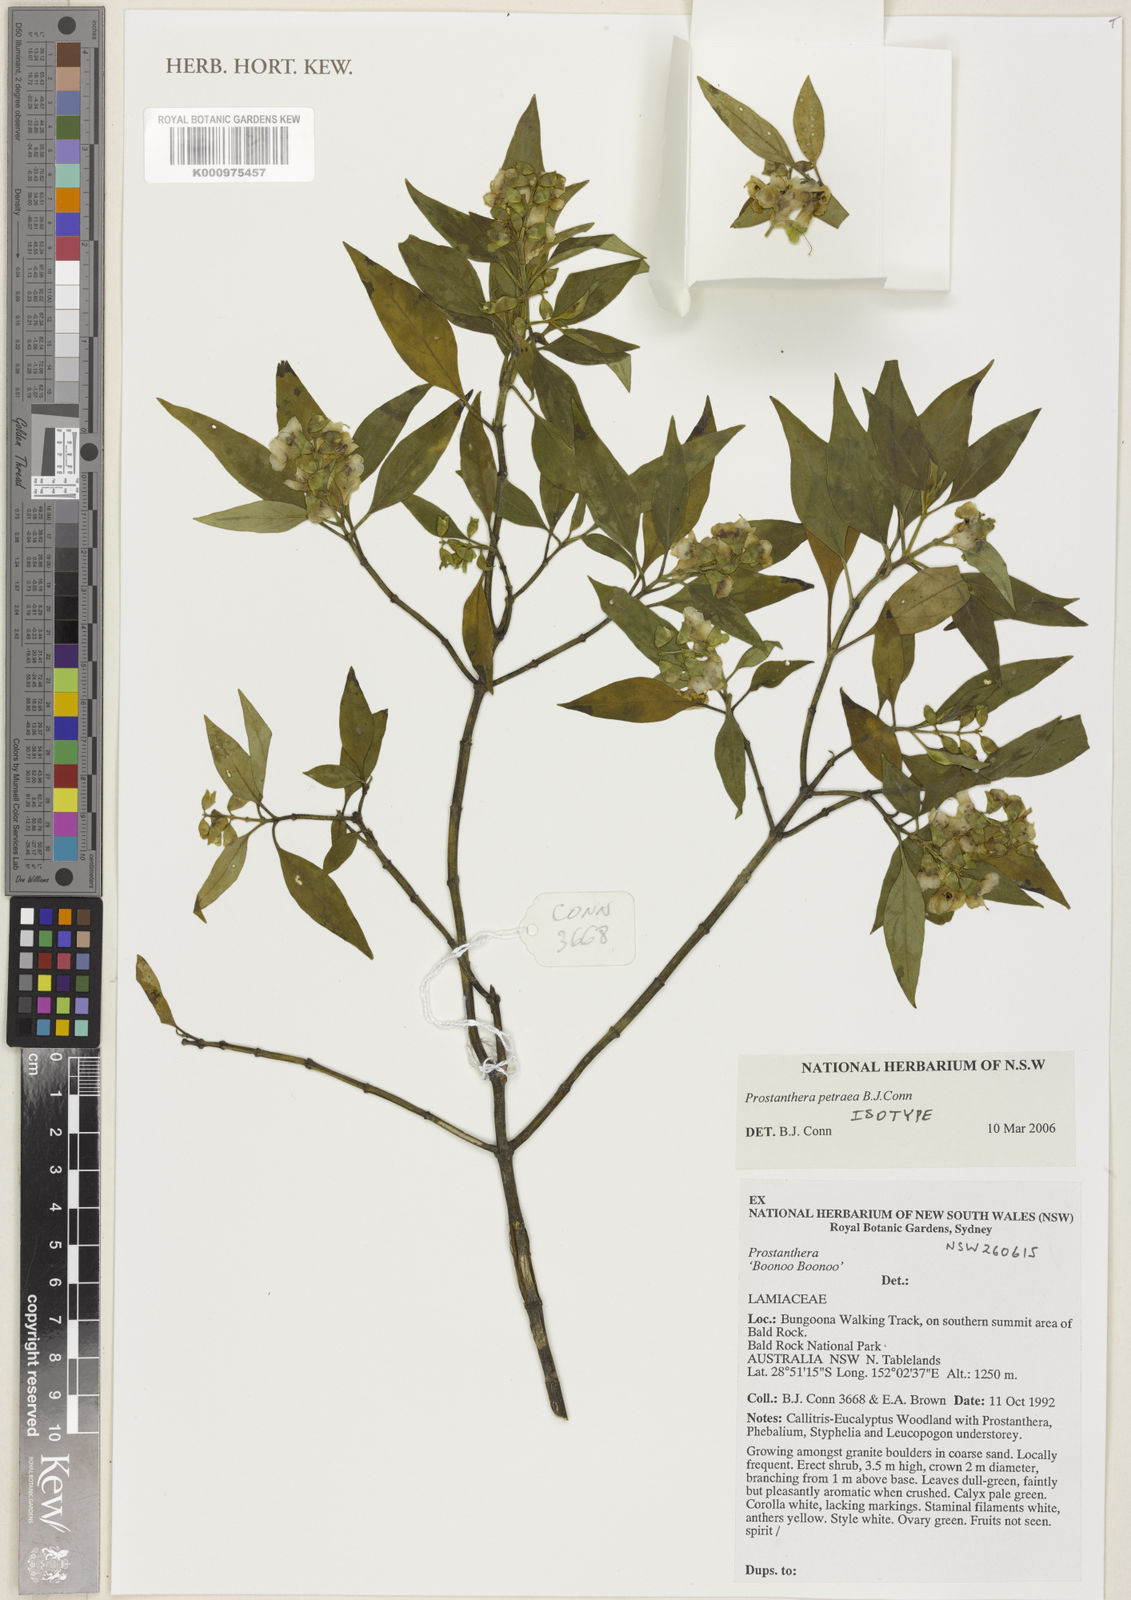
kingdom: Plantae
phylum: Tracheophyta
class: Magnoliopsida
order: Lamiales
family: Lamiaceae
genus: Prostanthera
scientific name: Prostanthera petraea
